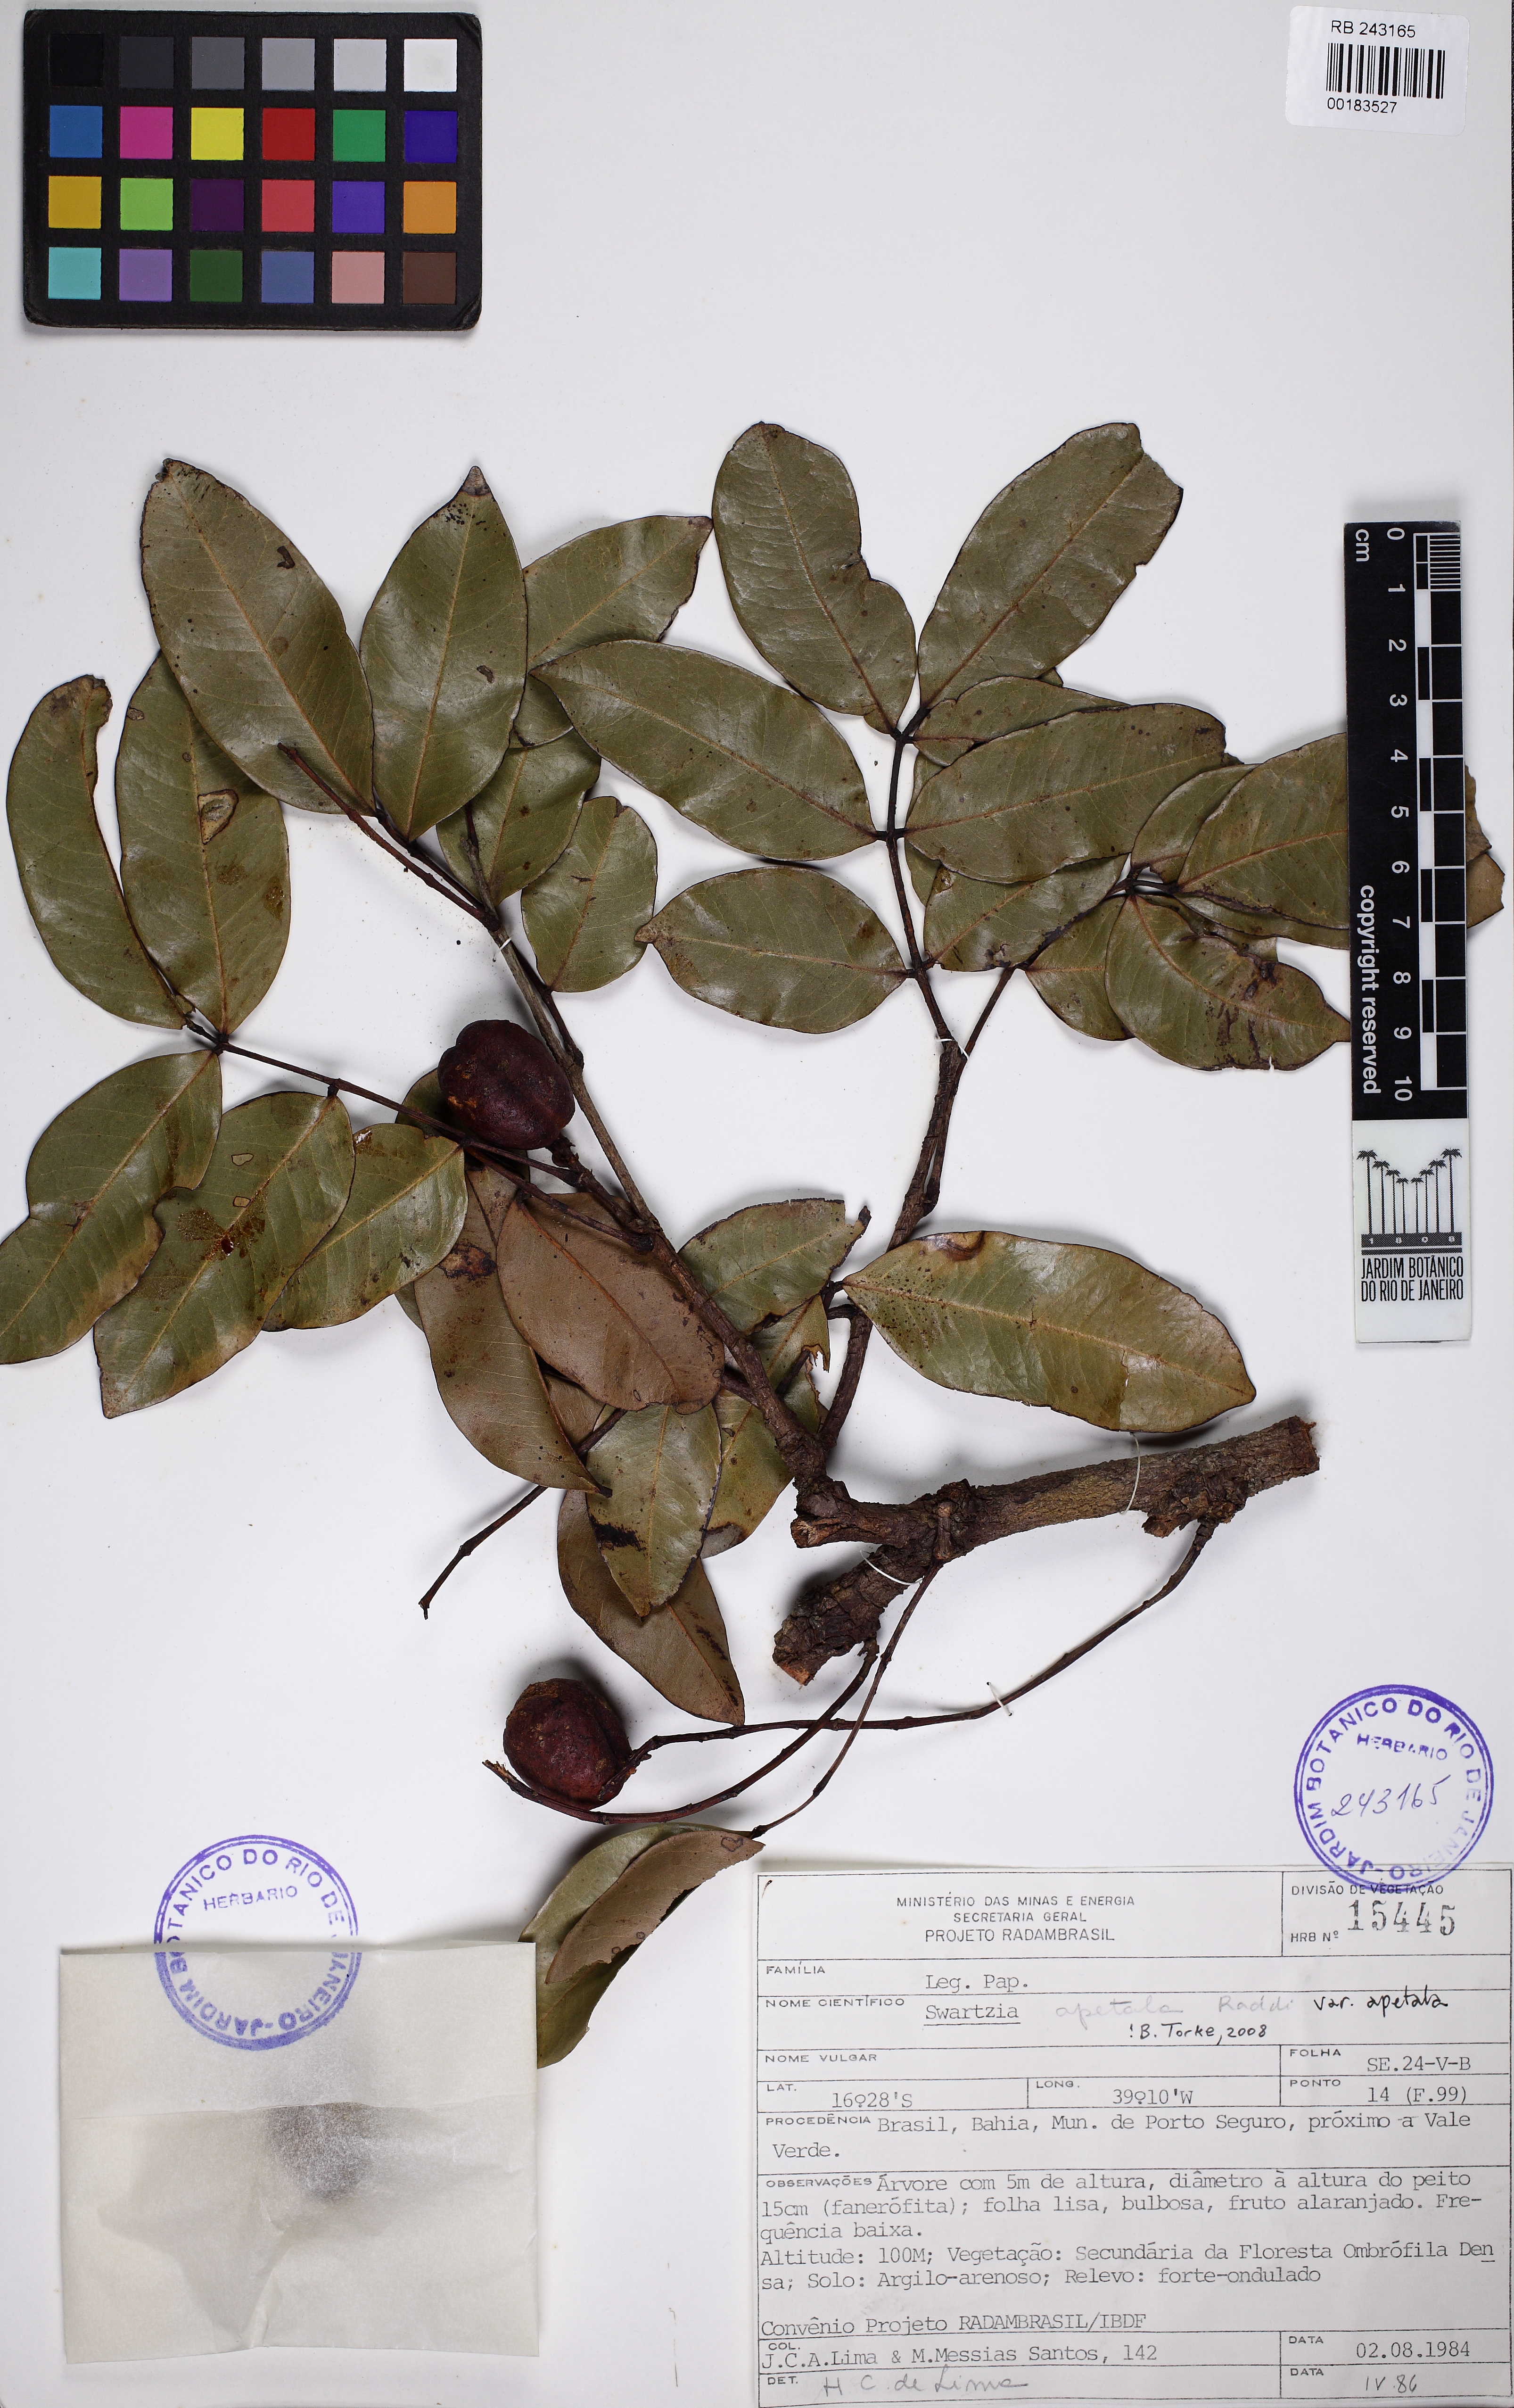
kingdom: Plantae
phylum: Tracheophyta
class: Magnoliopsida
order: Fabales
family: Fabaceae
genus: Swartzia
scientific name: Swartzia apetala
